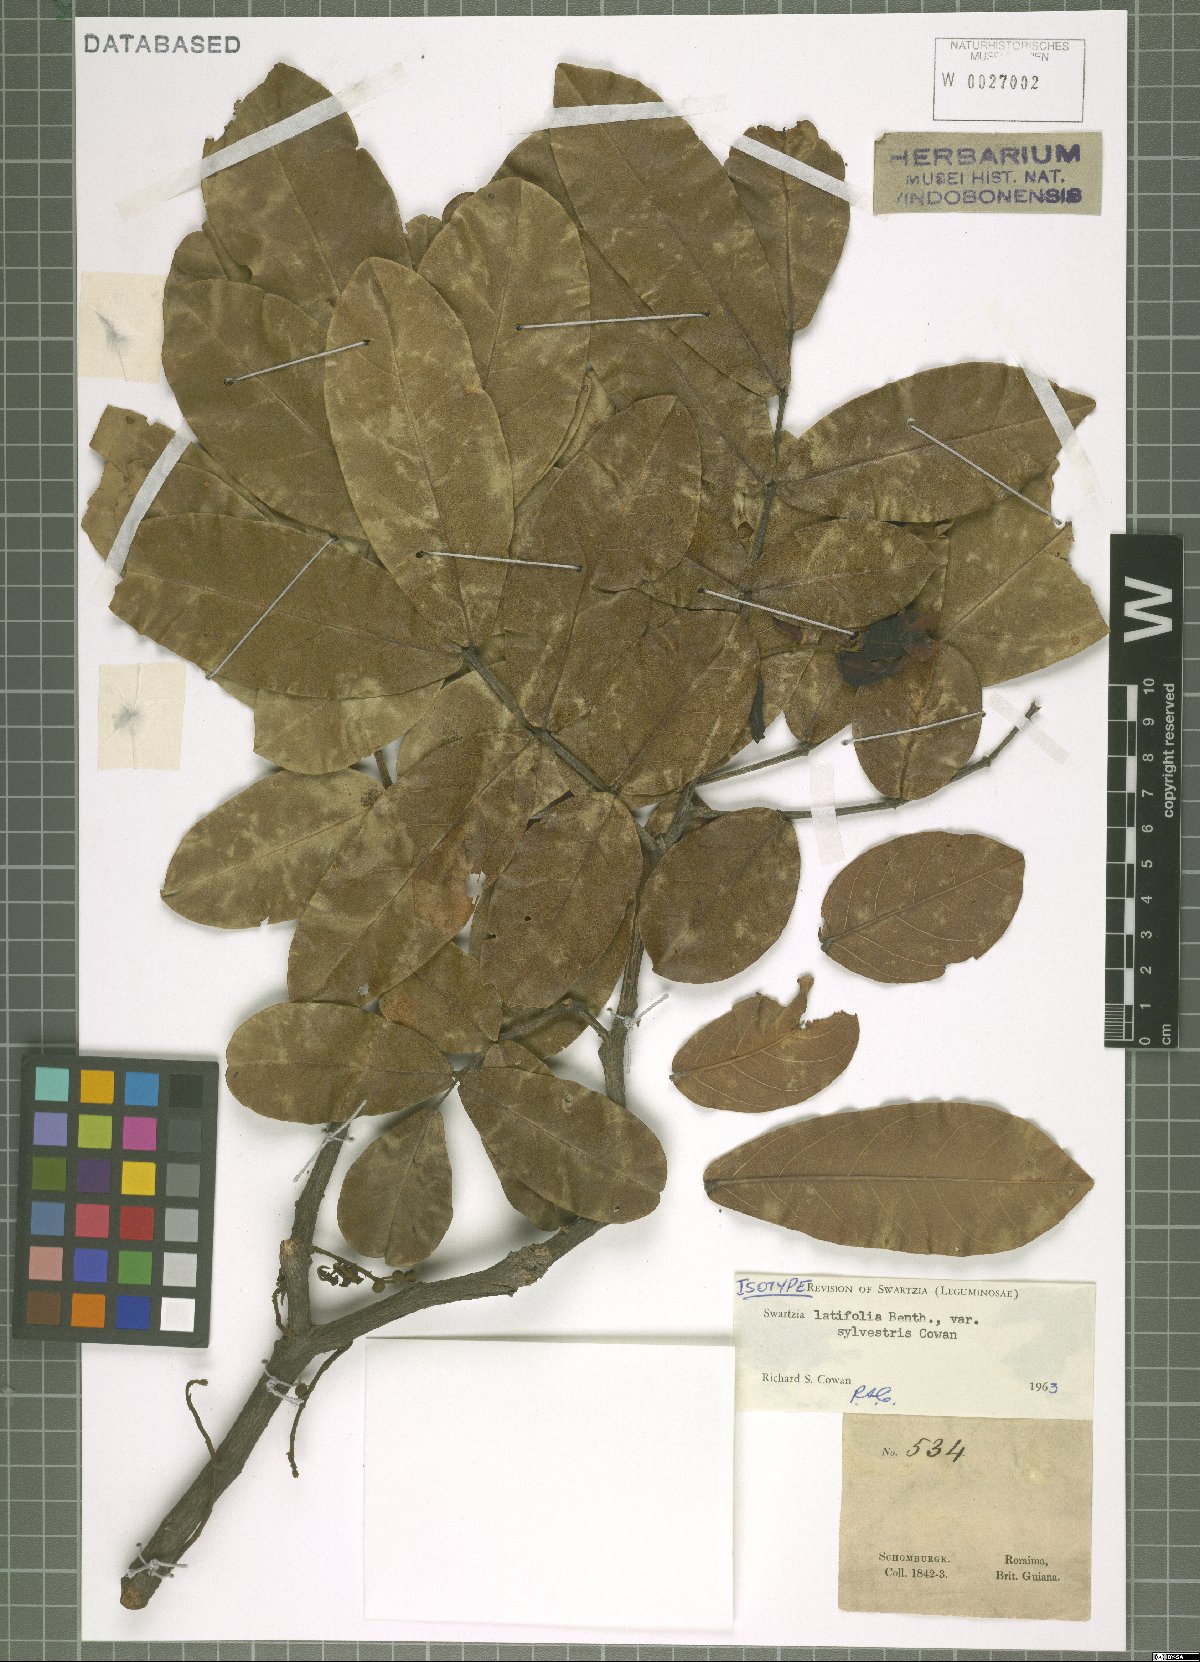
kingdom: Plantae
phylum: Tracheophyta
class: Magnoliopsida
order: Fabales
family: Fabaceae
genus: Swartzia
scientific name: Swartzia latifolia
